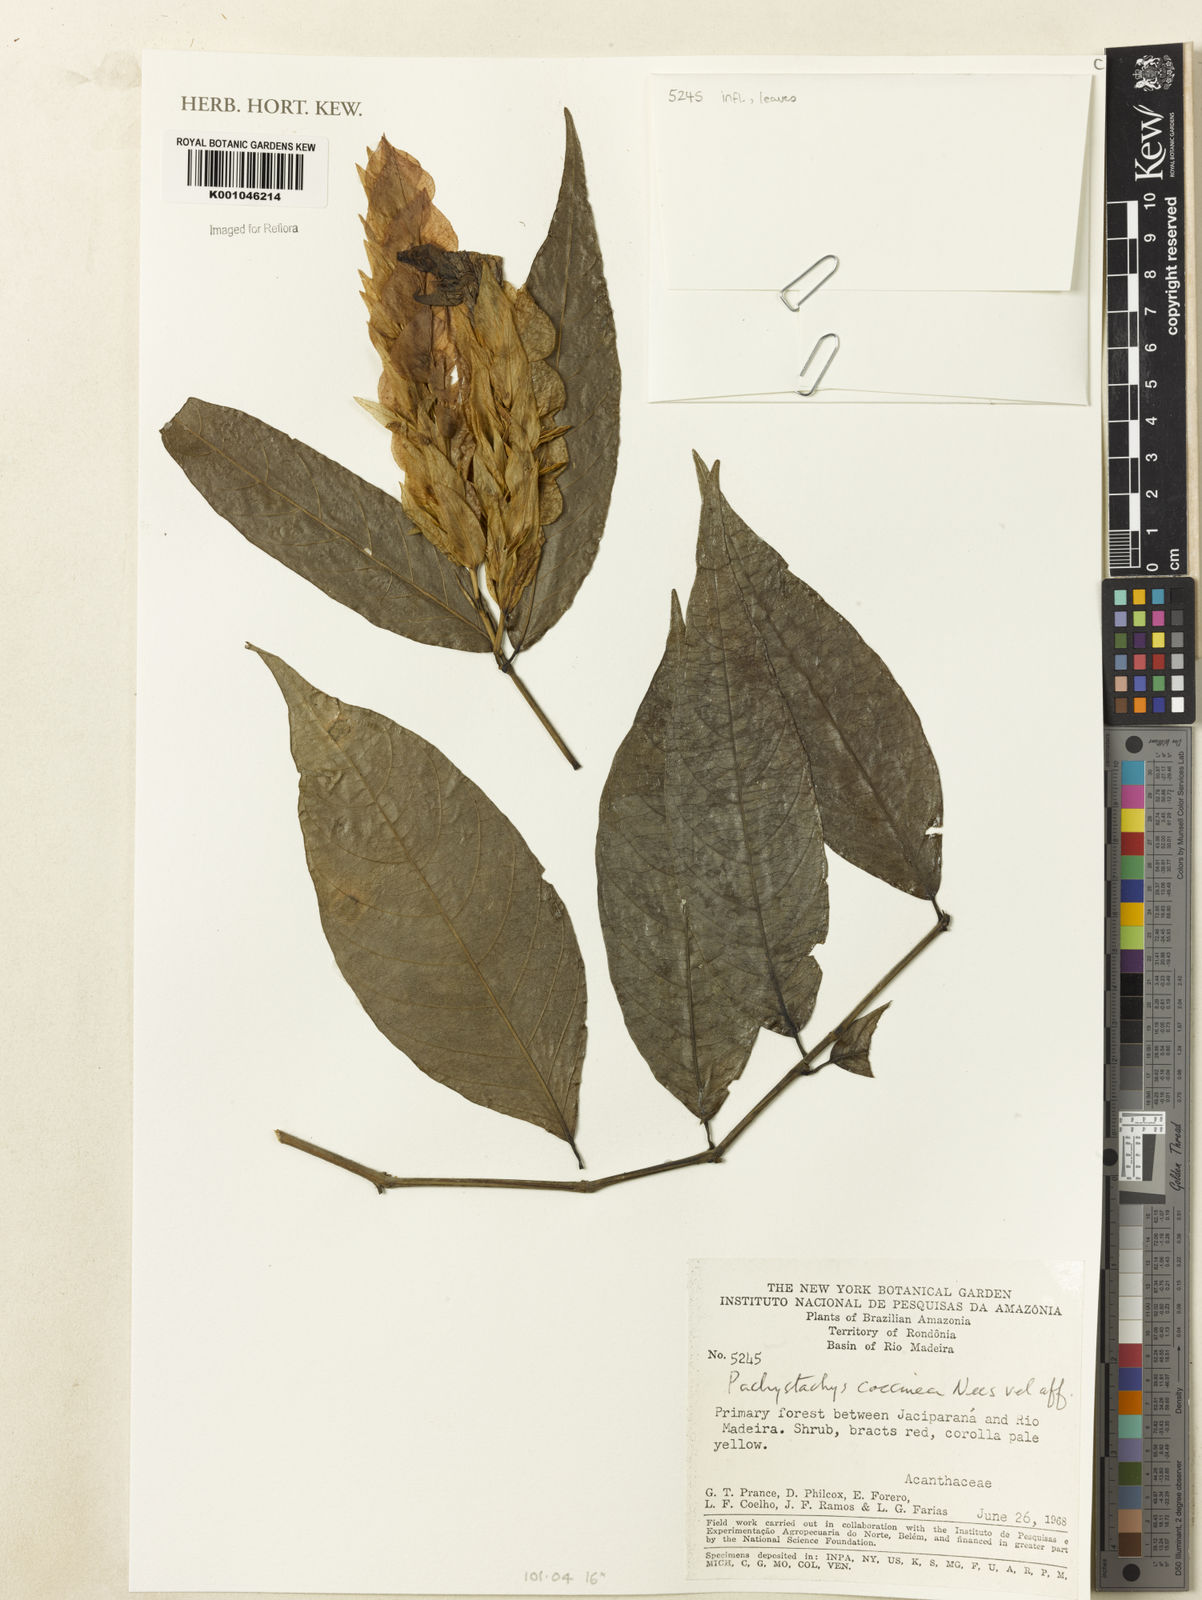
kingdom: Plantae
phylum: Tracheophyta
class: Magnoliopsida
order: Lamiales
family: Acanthaceae
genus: Pachystachys
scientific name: Pachystachys coccinea
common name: Cardinal's-guard
